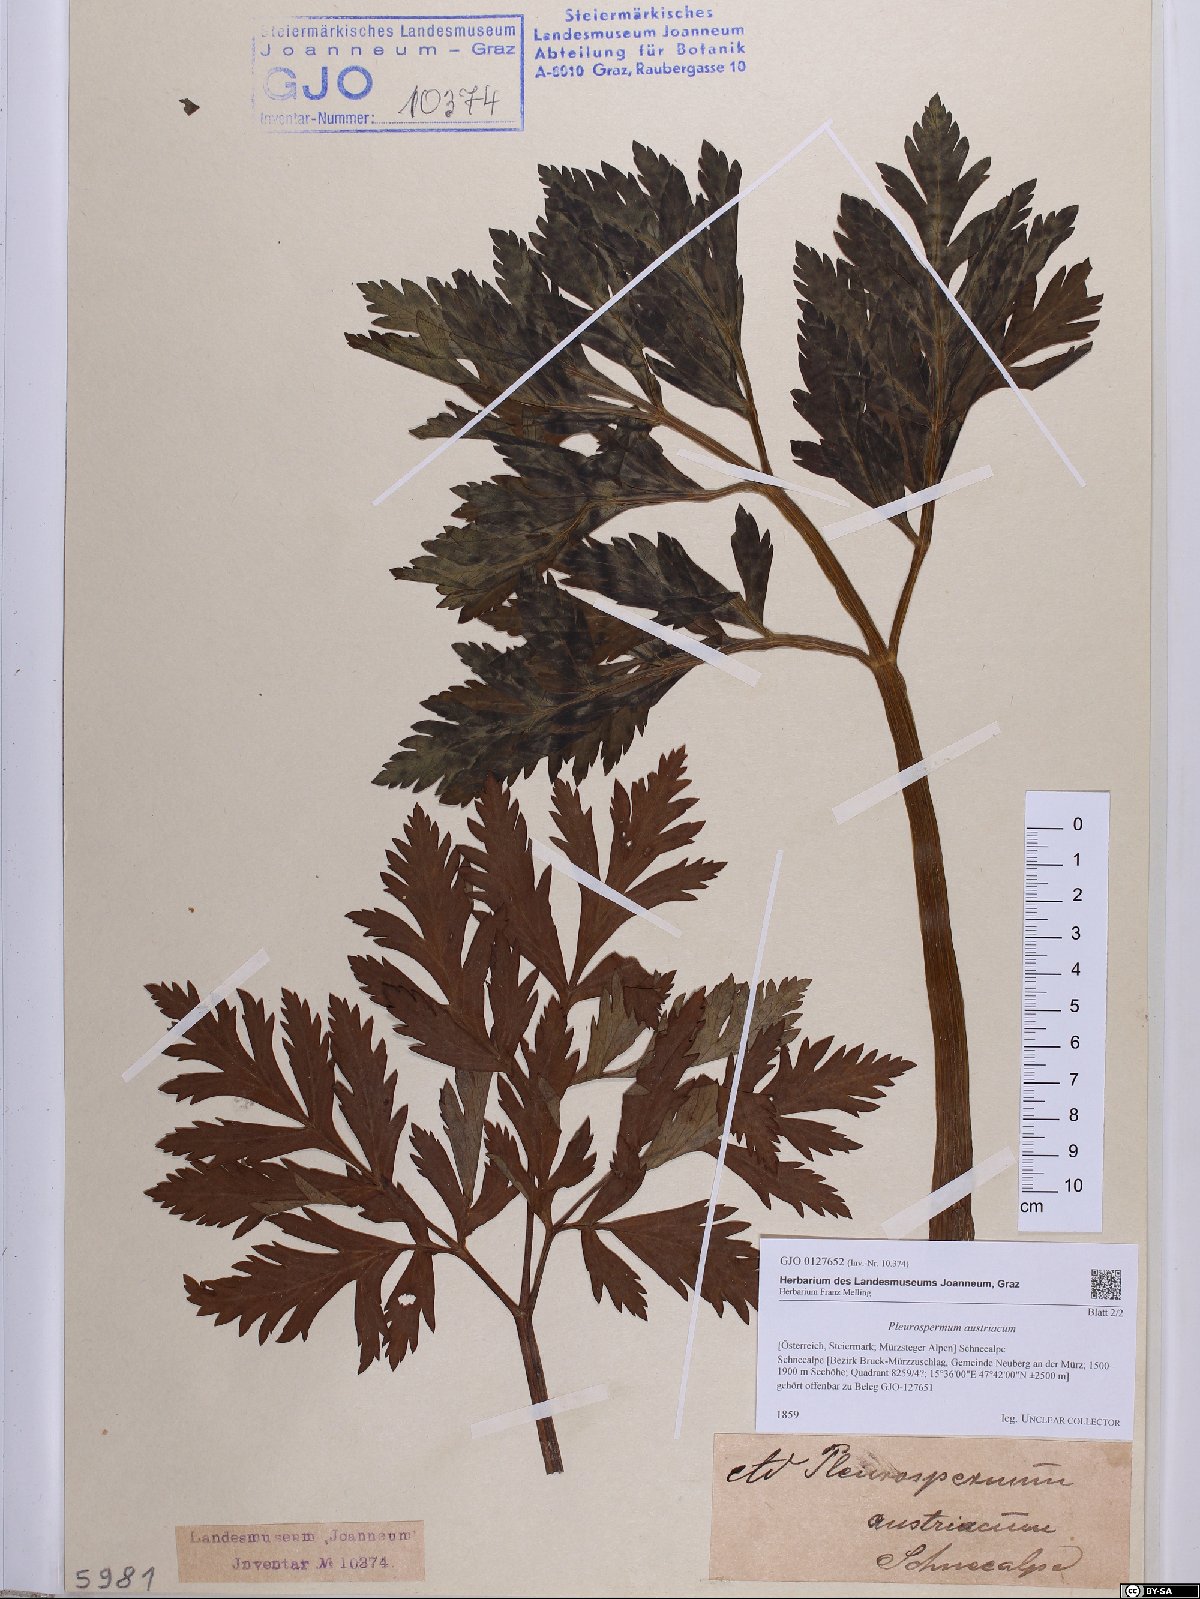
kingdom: Plantae
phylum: Tracheophyta
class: Magnoliopsida
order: Apiales
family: Apiaceae
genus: Pleurospermum
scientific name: Pleurospermum austriacum
